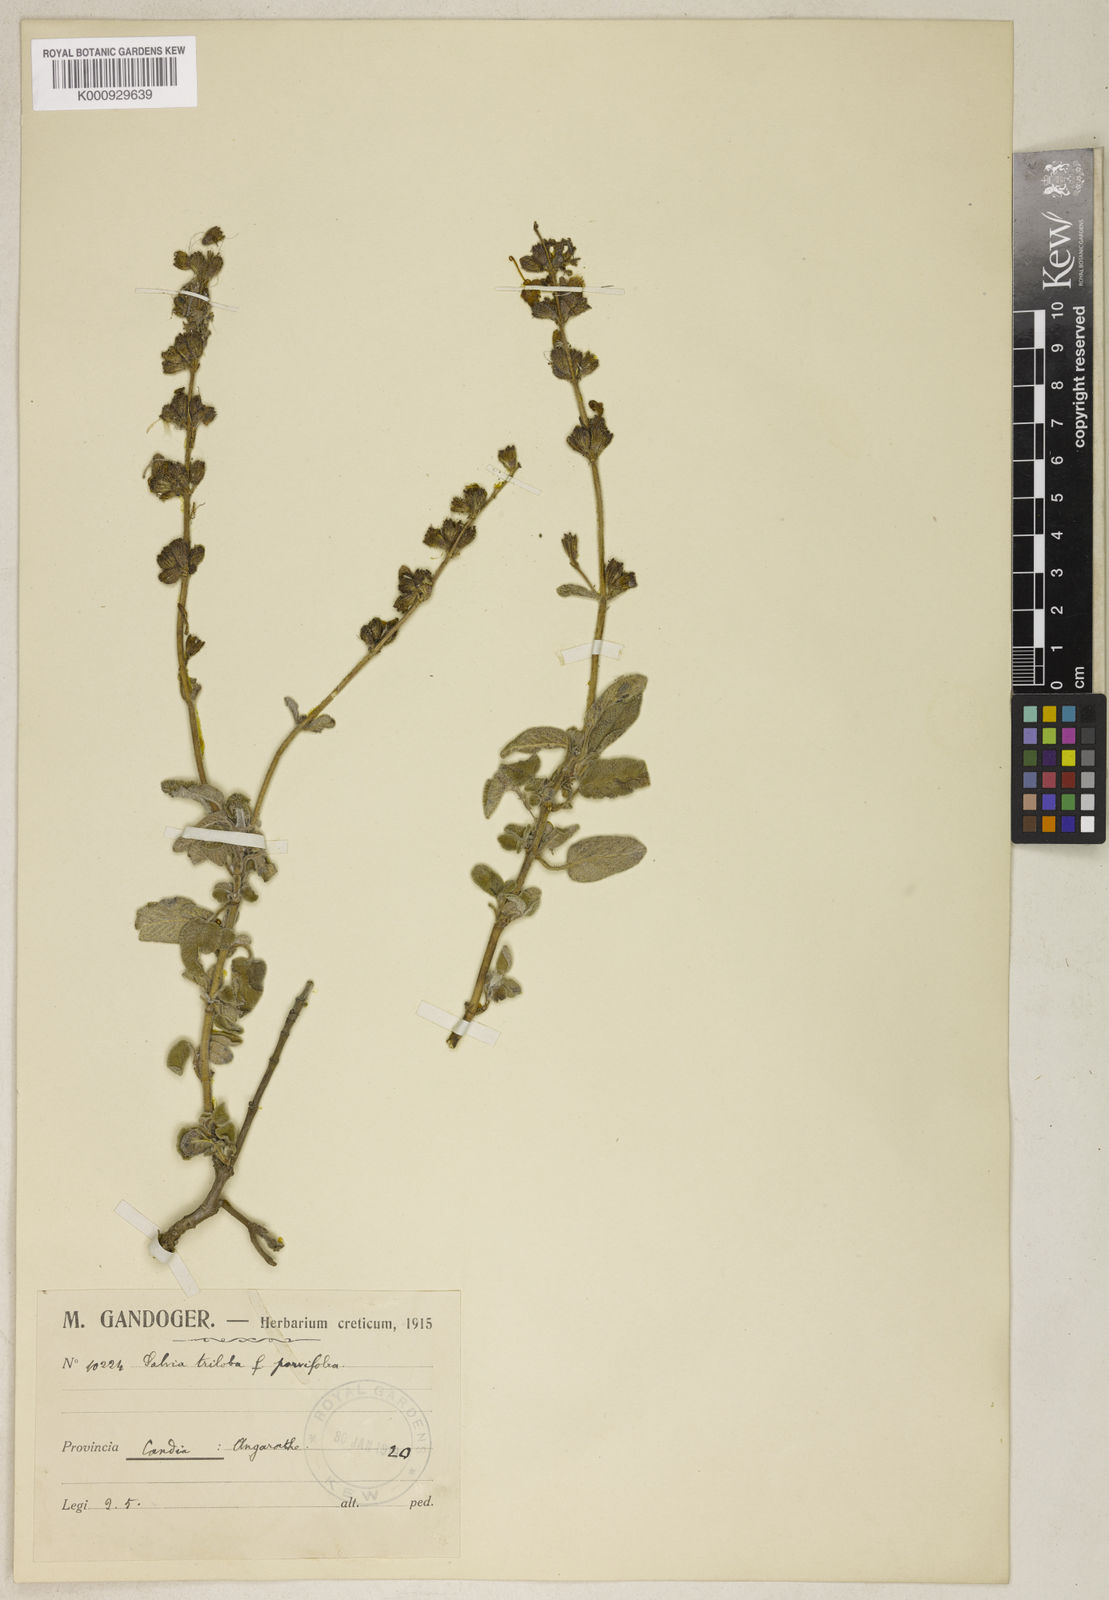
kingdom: Plantae
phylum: Tracheophyta
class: Magnoliopsida
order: Lamiales
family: Lamiaceae
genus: Salvia
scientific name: Salvia fruticosa
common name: Greek sage
